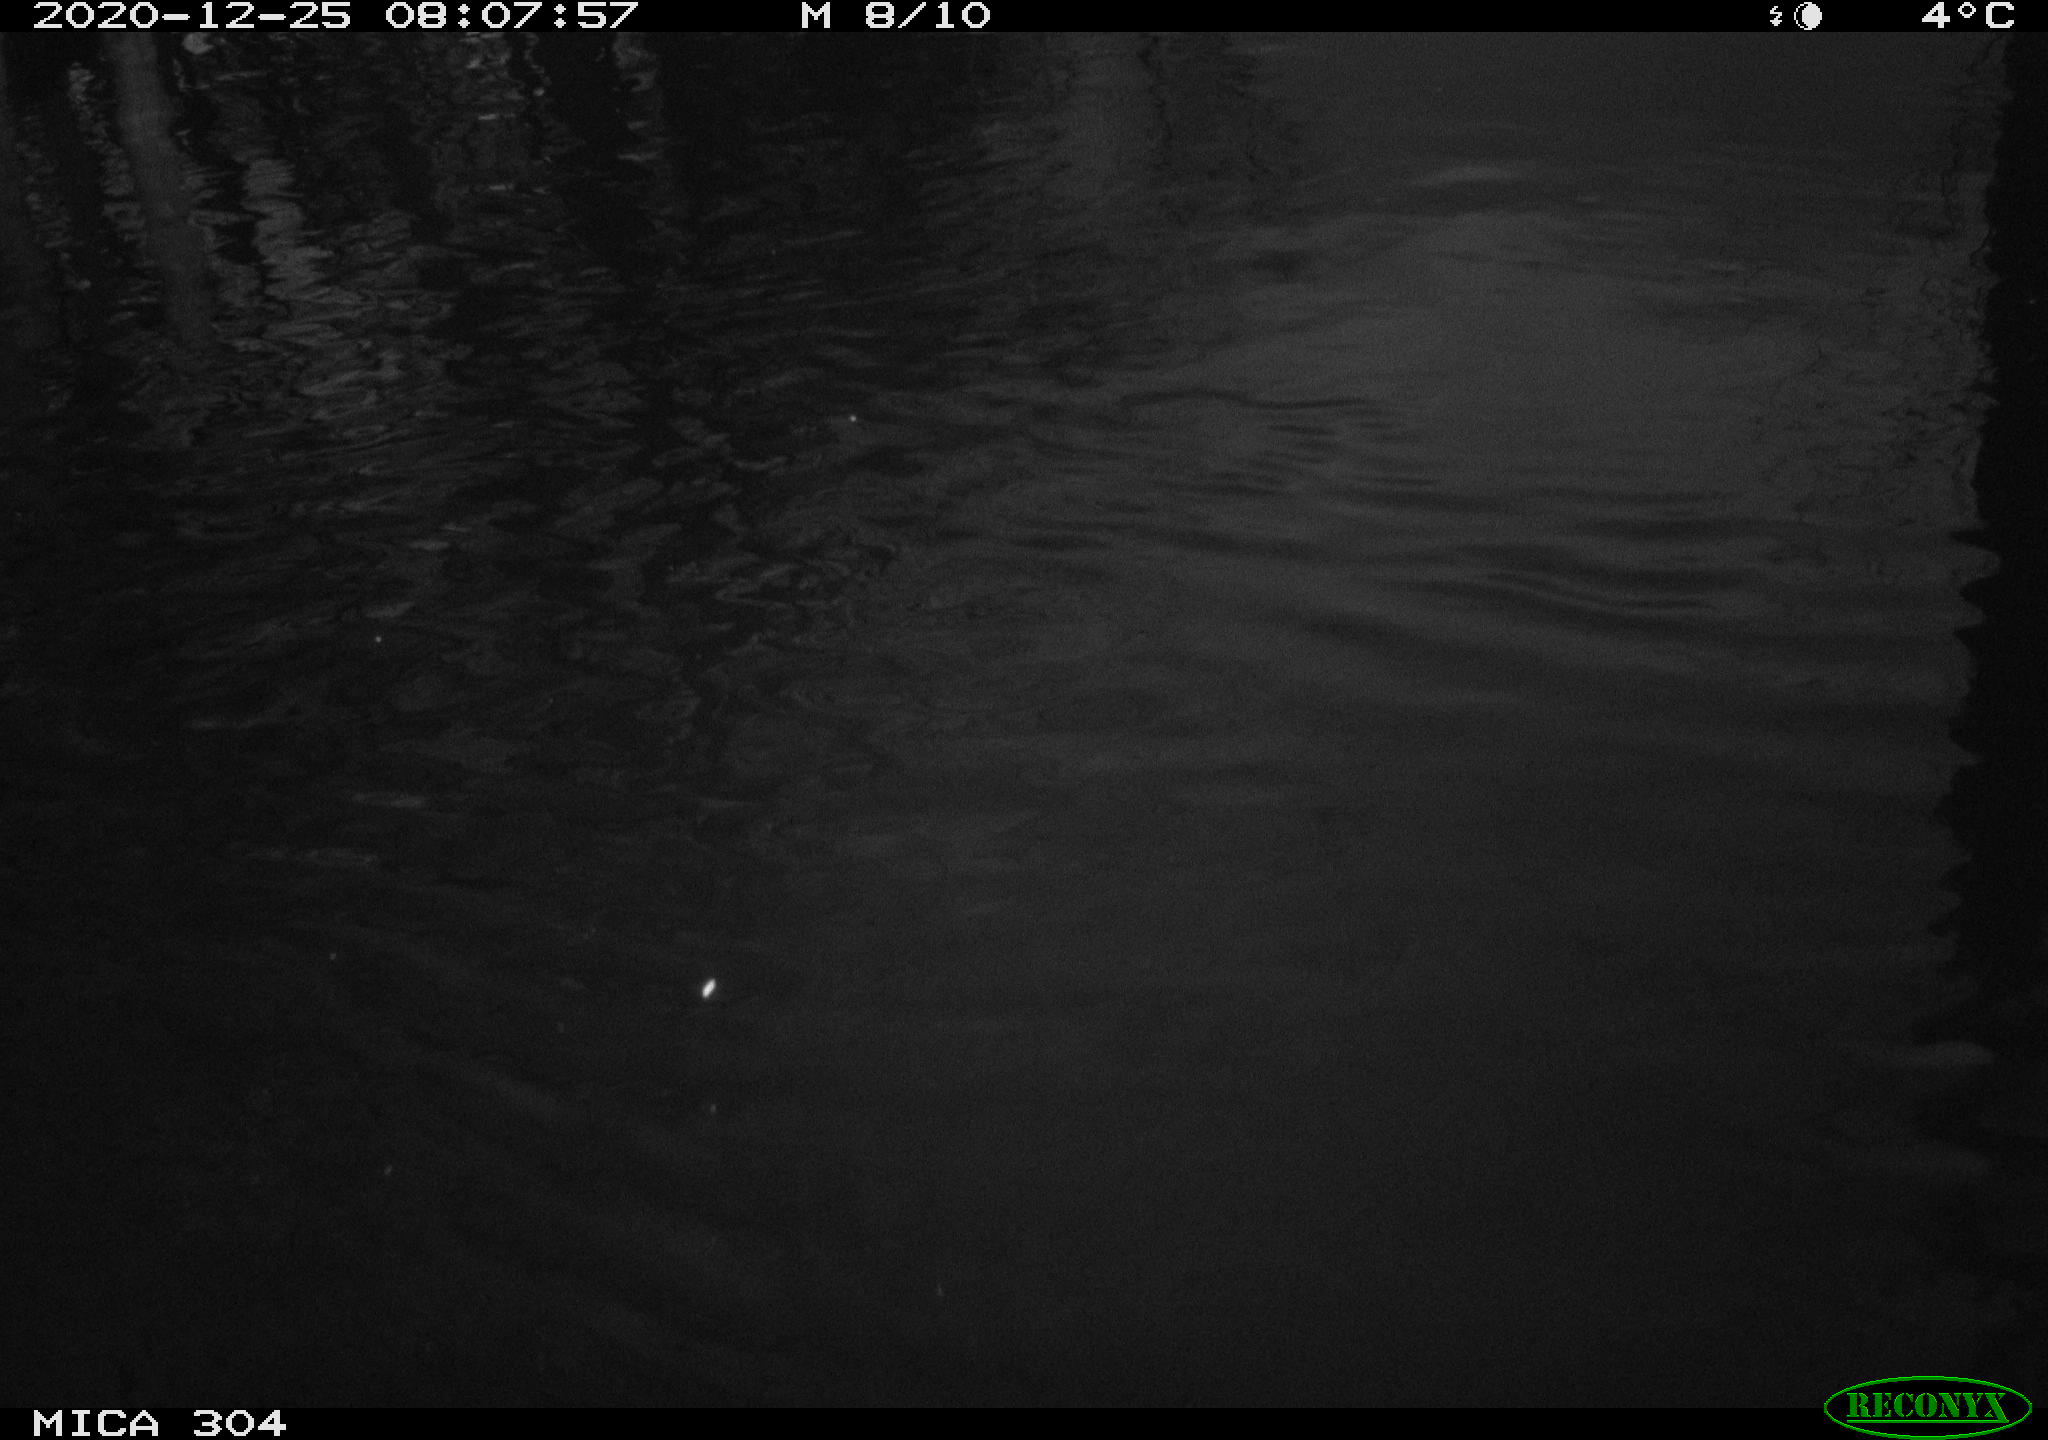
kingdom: Animalia
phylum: Chordata
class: Aves
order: Gruiformes
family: Rallidae
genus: Fulica
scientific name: Fulica atra
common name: Eurasian coot
